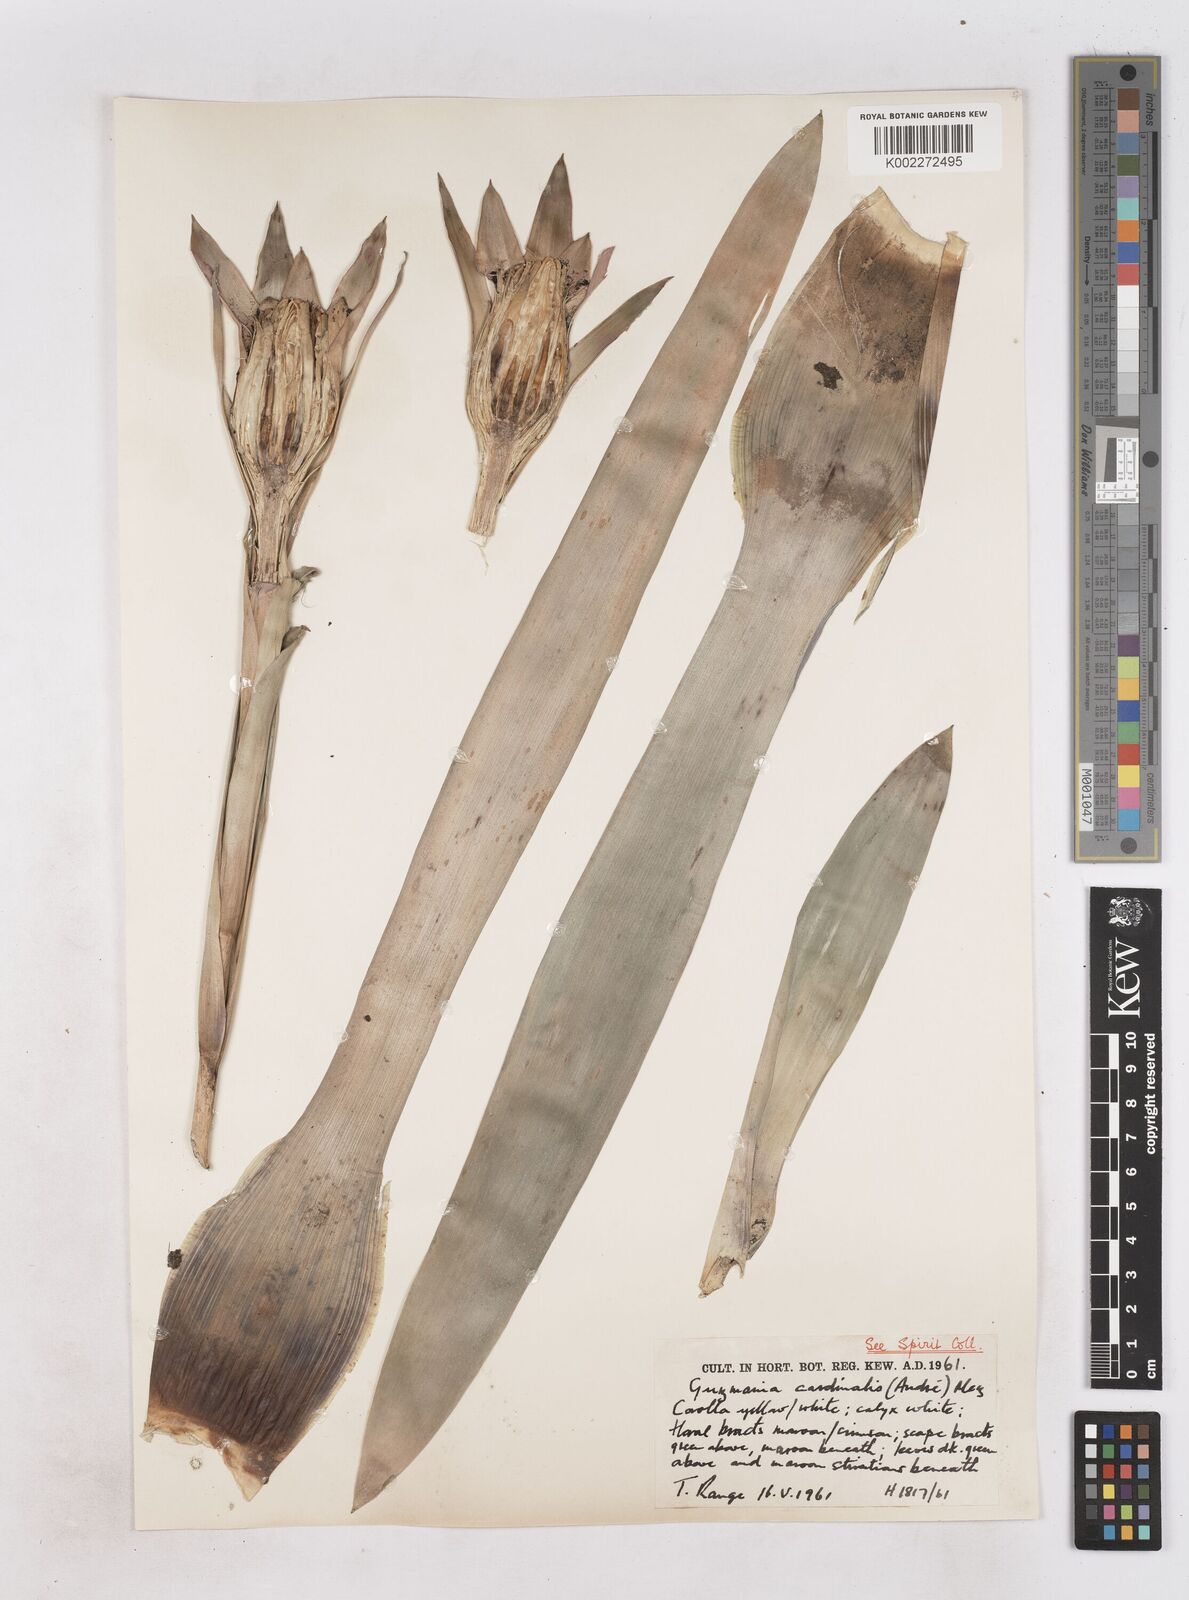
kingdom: Plantae
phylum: Tracheophyta
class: Liliopsida
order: Poales
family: Bromeliaceae
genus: Guzmania
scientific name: Guzmania lingulata
